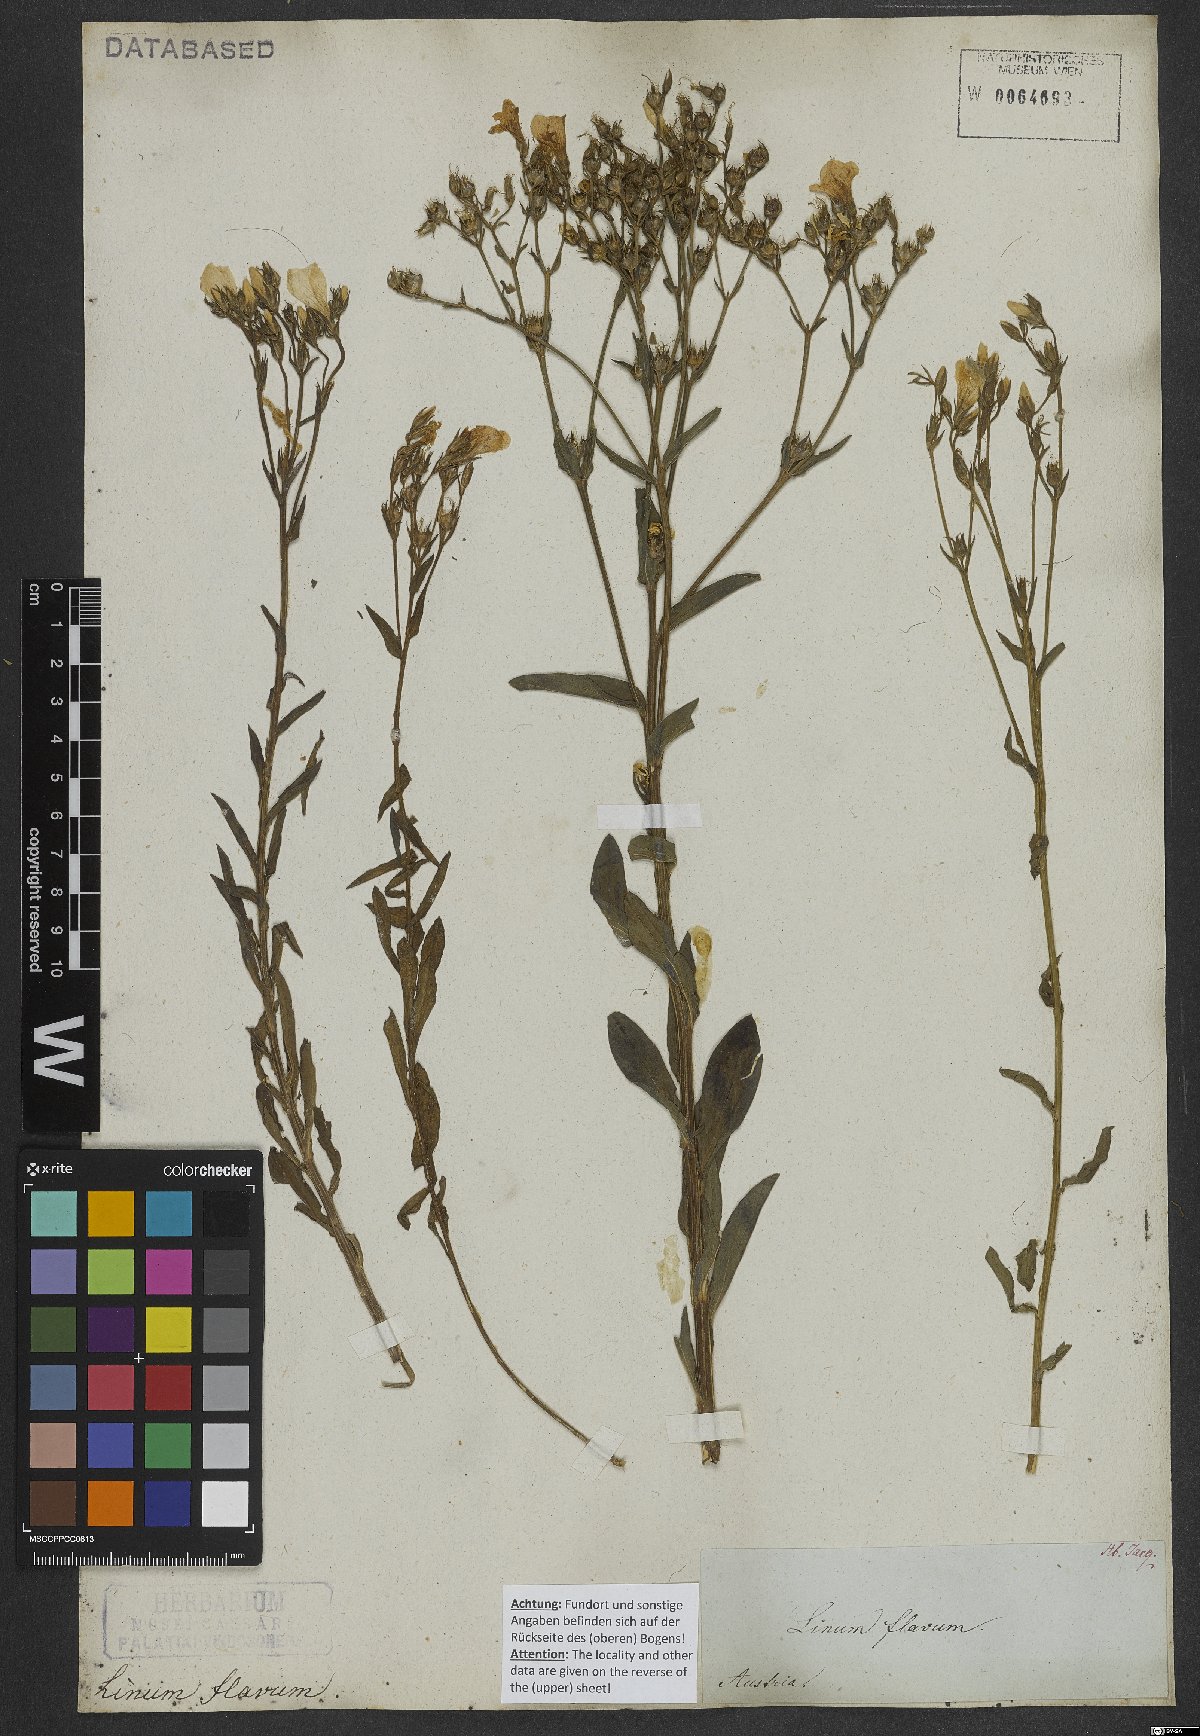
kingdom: Plantae
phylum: Tracheophyta
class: Magnoliopsida
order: Malpighiales
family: Linaceae
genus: Linum
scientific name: Linum flavum
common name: Yellow flax
